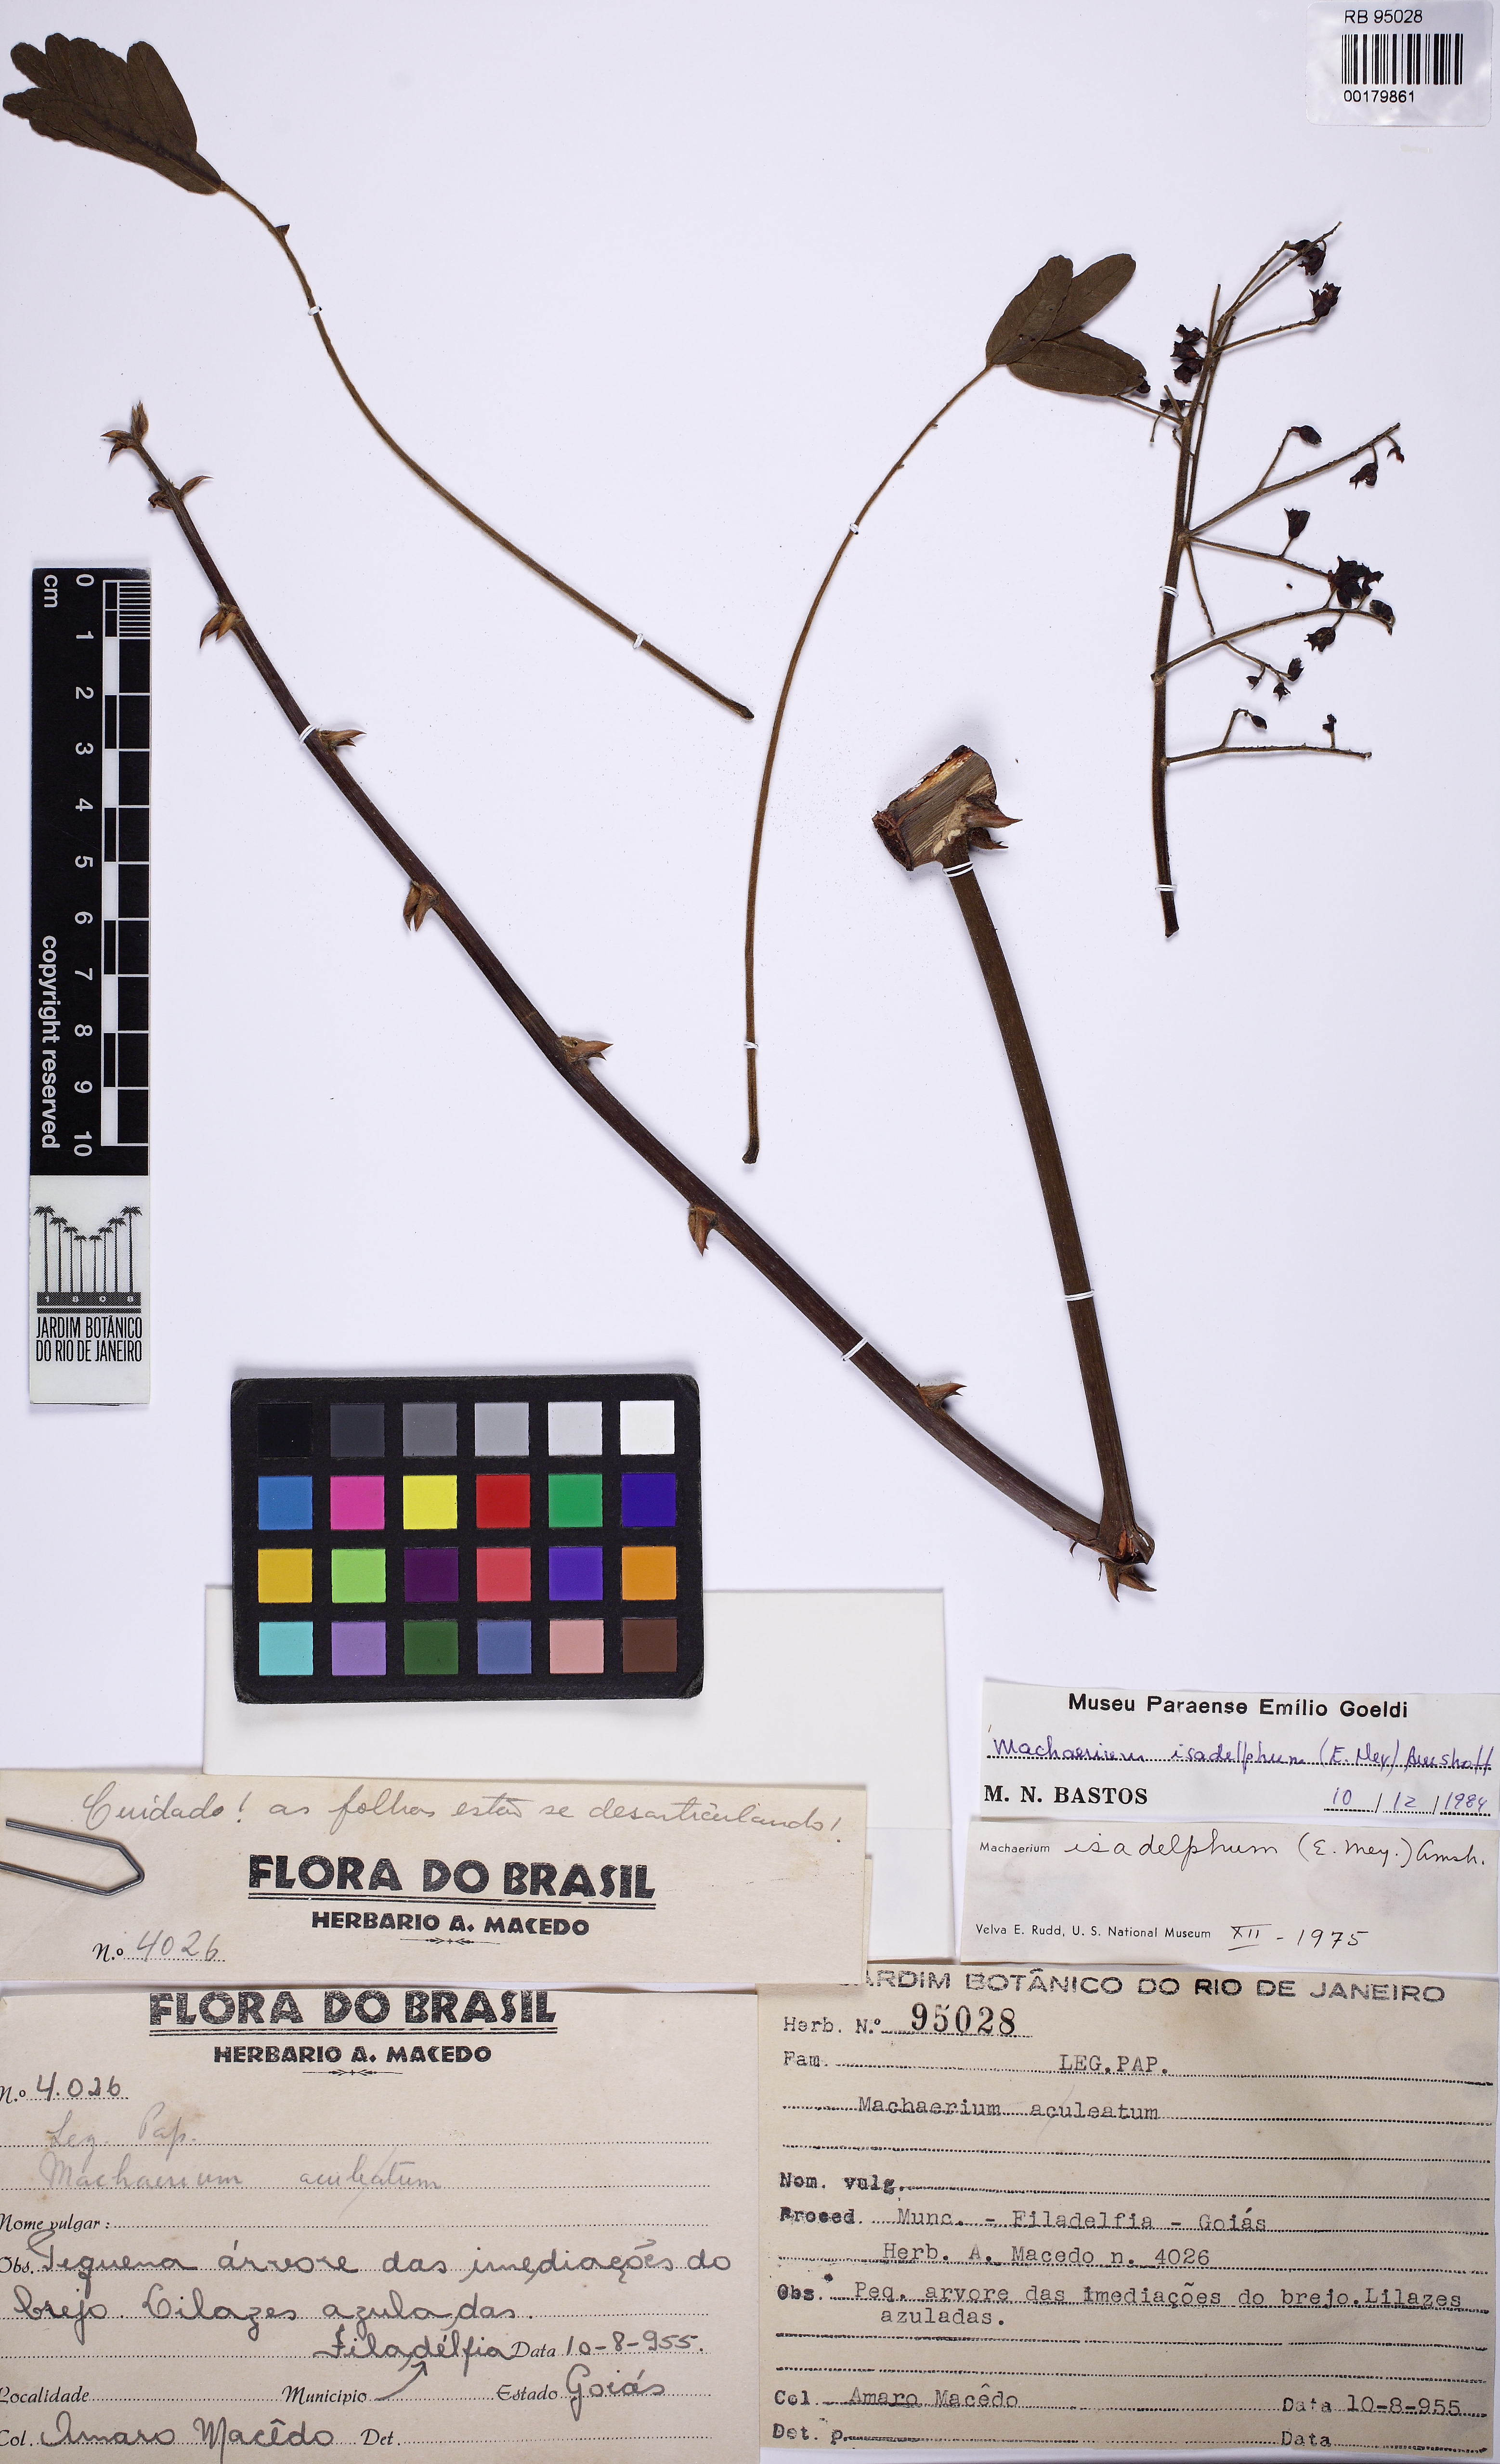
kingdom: Plantae
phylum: Tracheophyta
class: Magnoliopsida
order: Fabales
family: Fabaceae
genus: Machaerium
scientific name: Machaerium isadelphum
